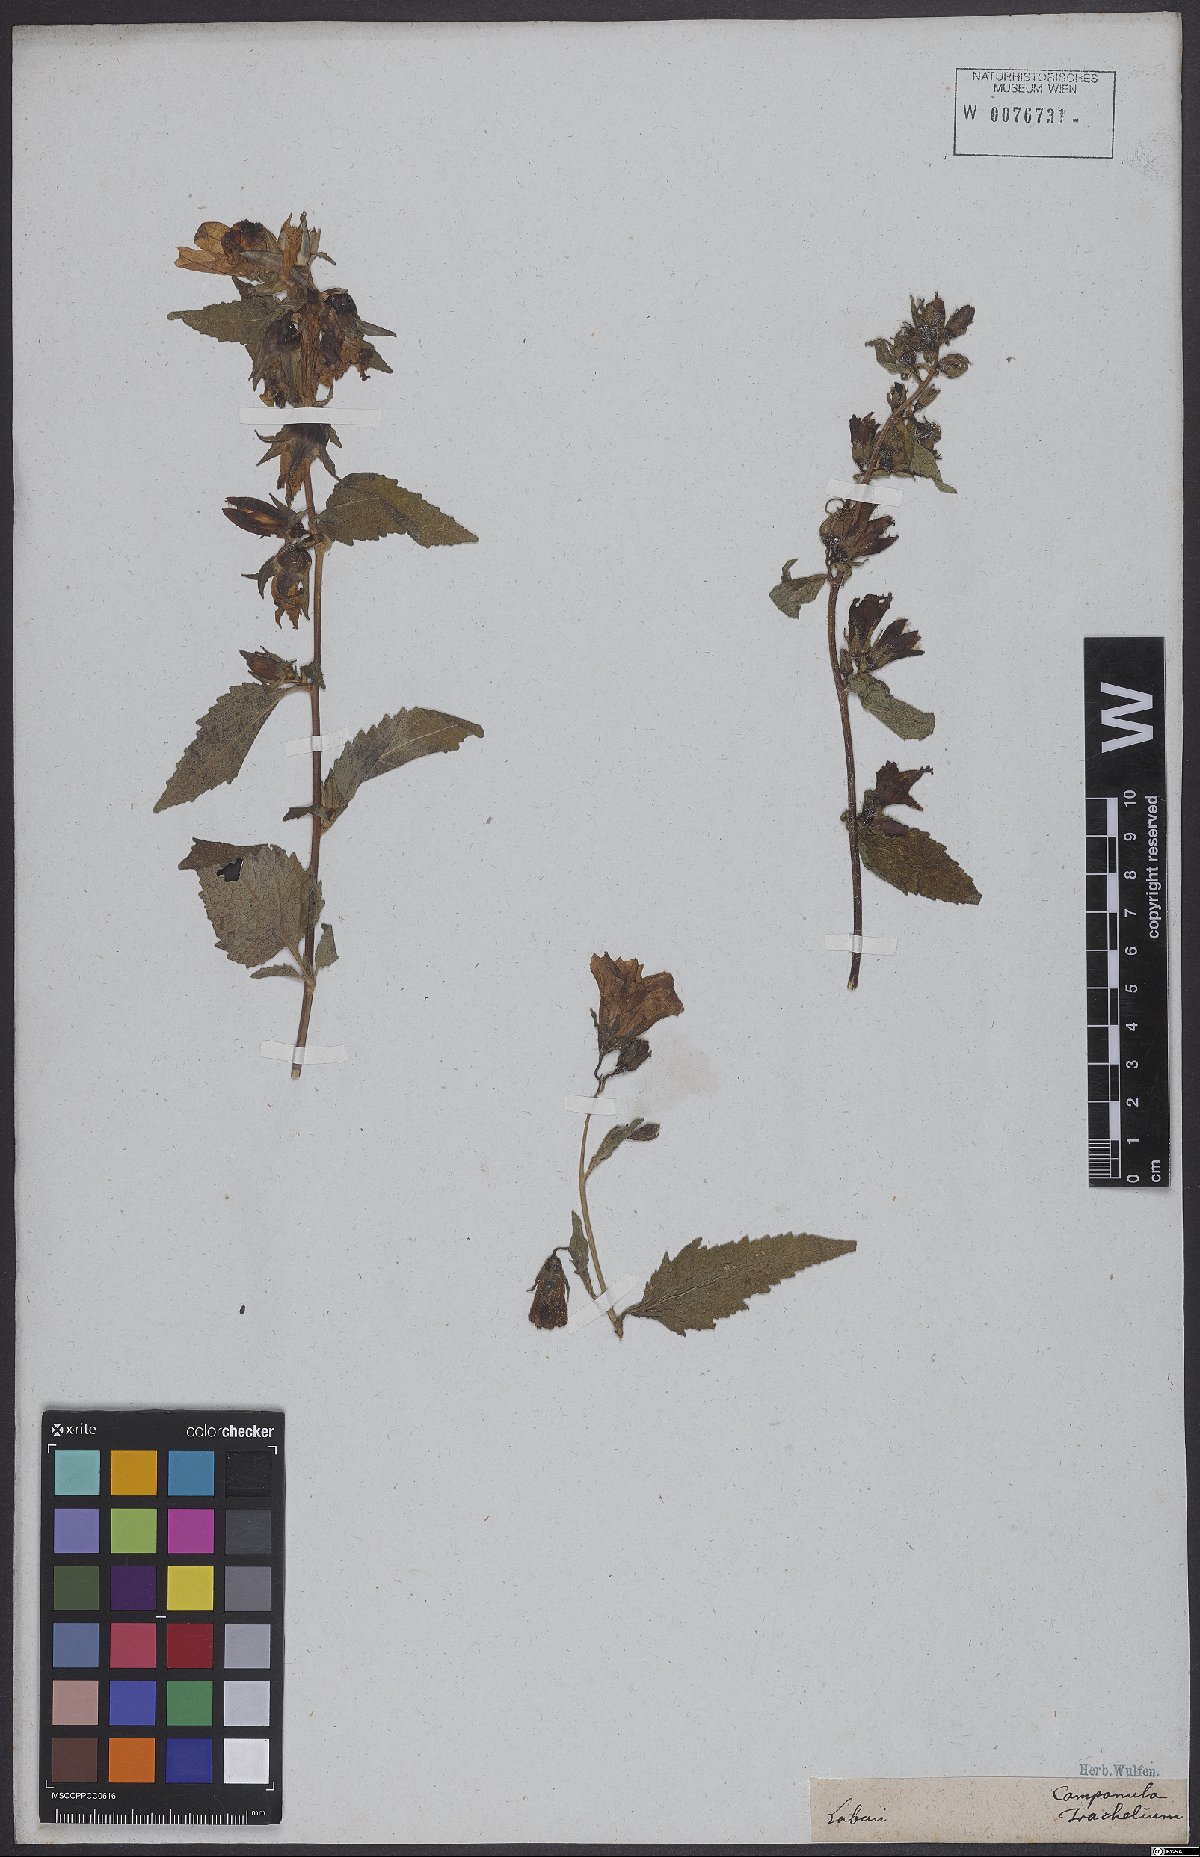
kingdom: Plantae
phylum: Tracheophyta
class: Magnoliopsida
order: Asterales
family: Campanulaceae
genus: Campanula
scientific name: Campanula trachelium
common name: Nettle-leaved bellflower
